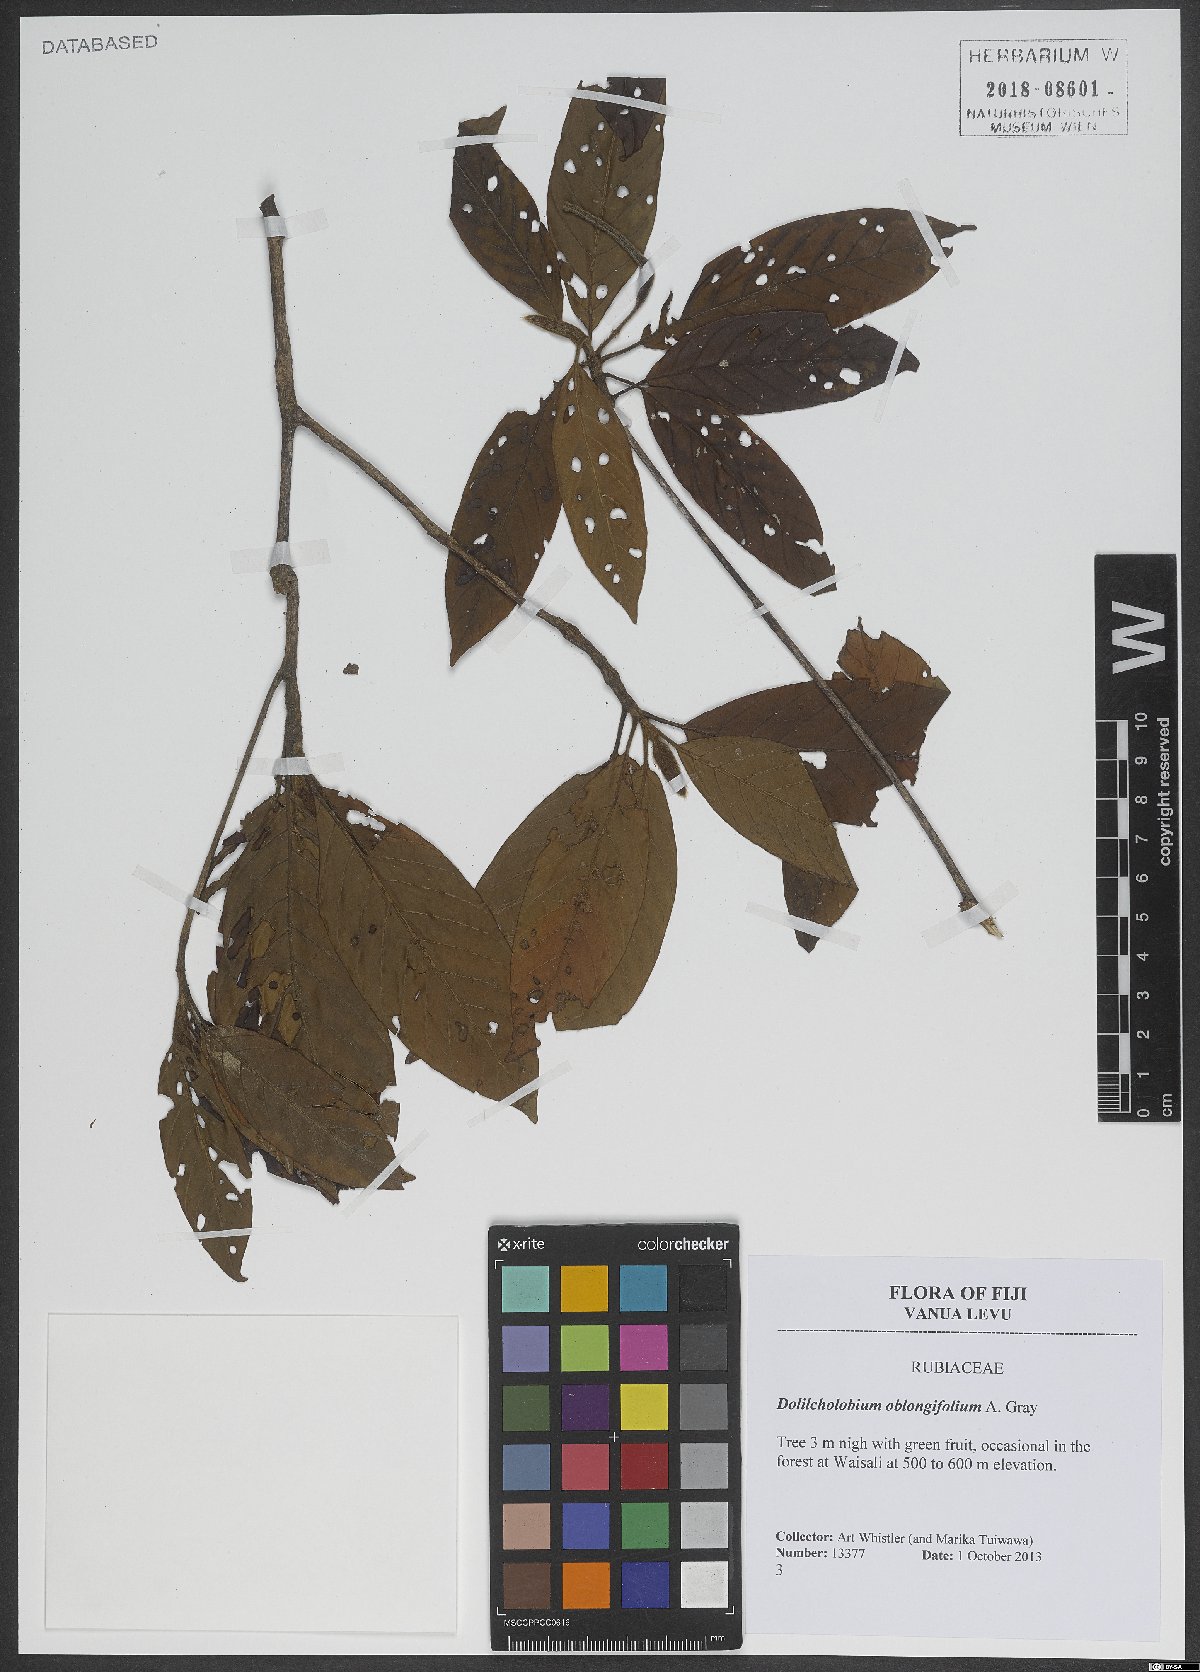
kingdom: Plantae
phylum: Tracheophyta
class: Magnoliopsida
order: Gentianales
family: Rubiaceae
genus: Dolicholobium
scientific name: Dolicholobium oblongifolium
